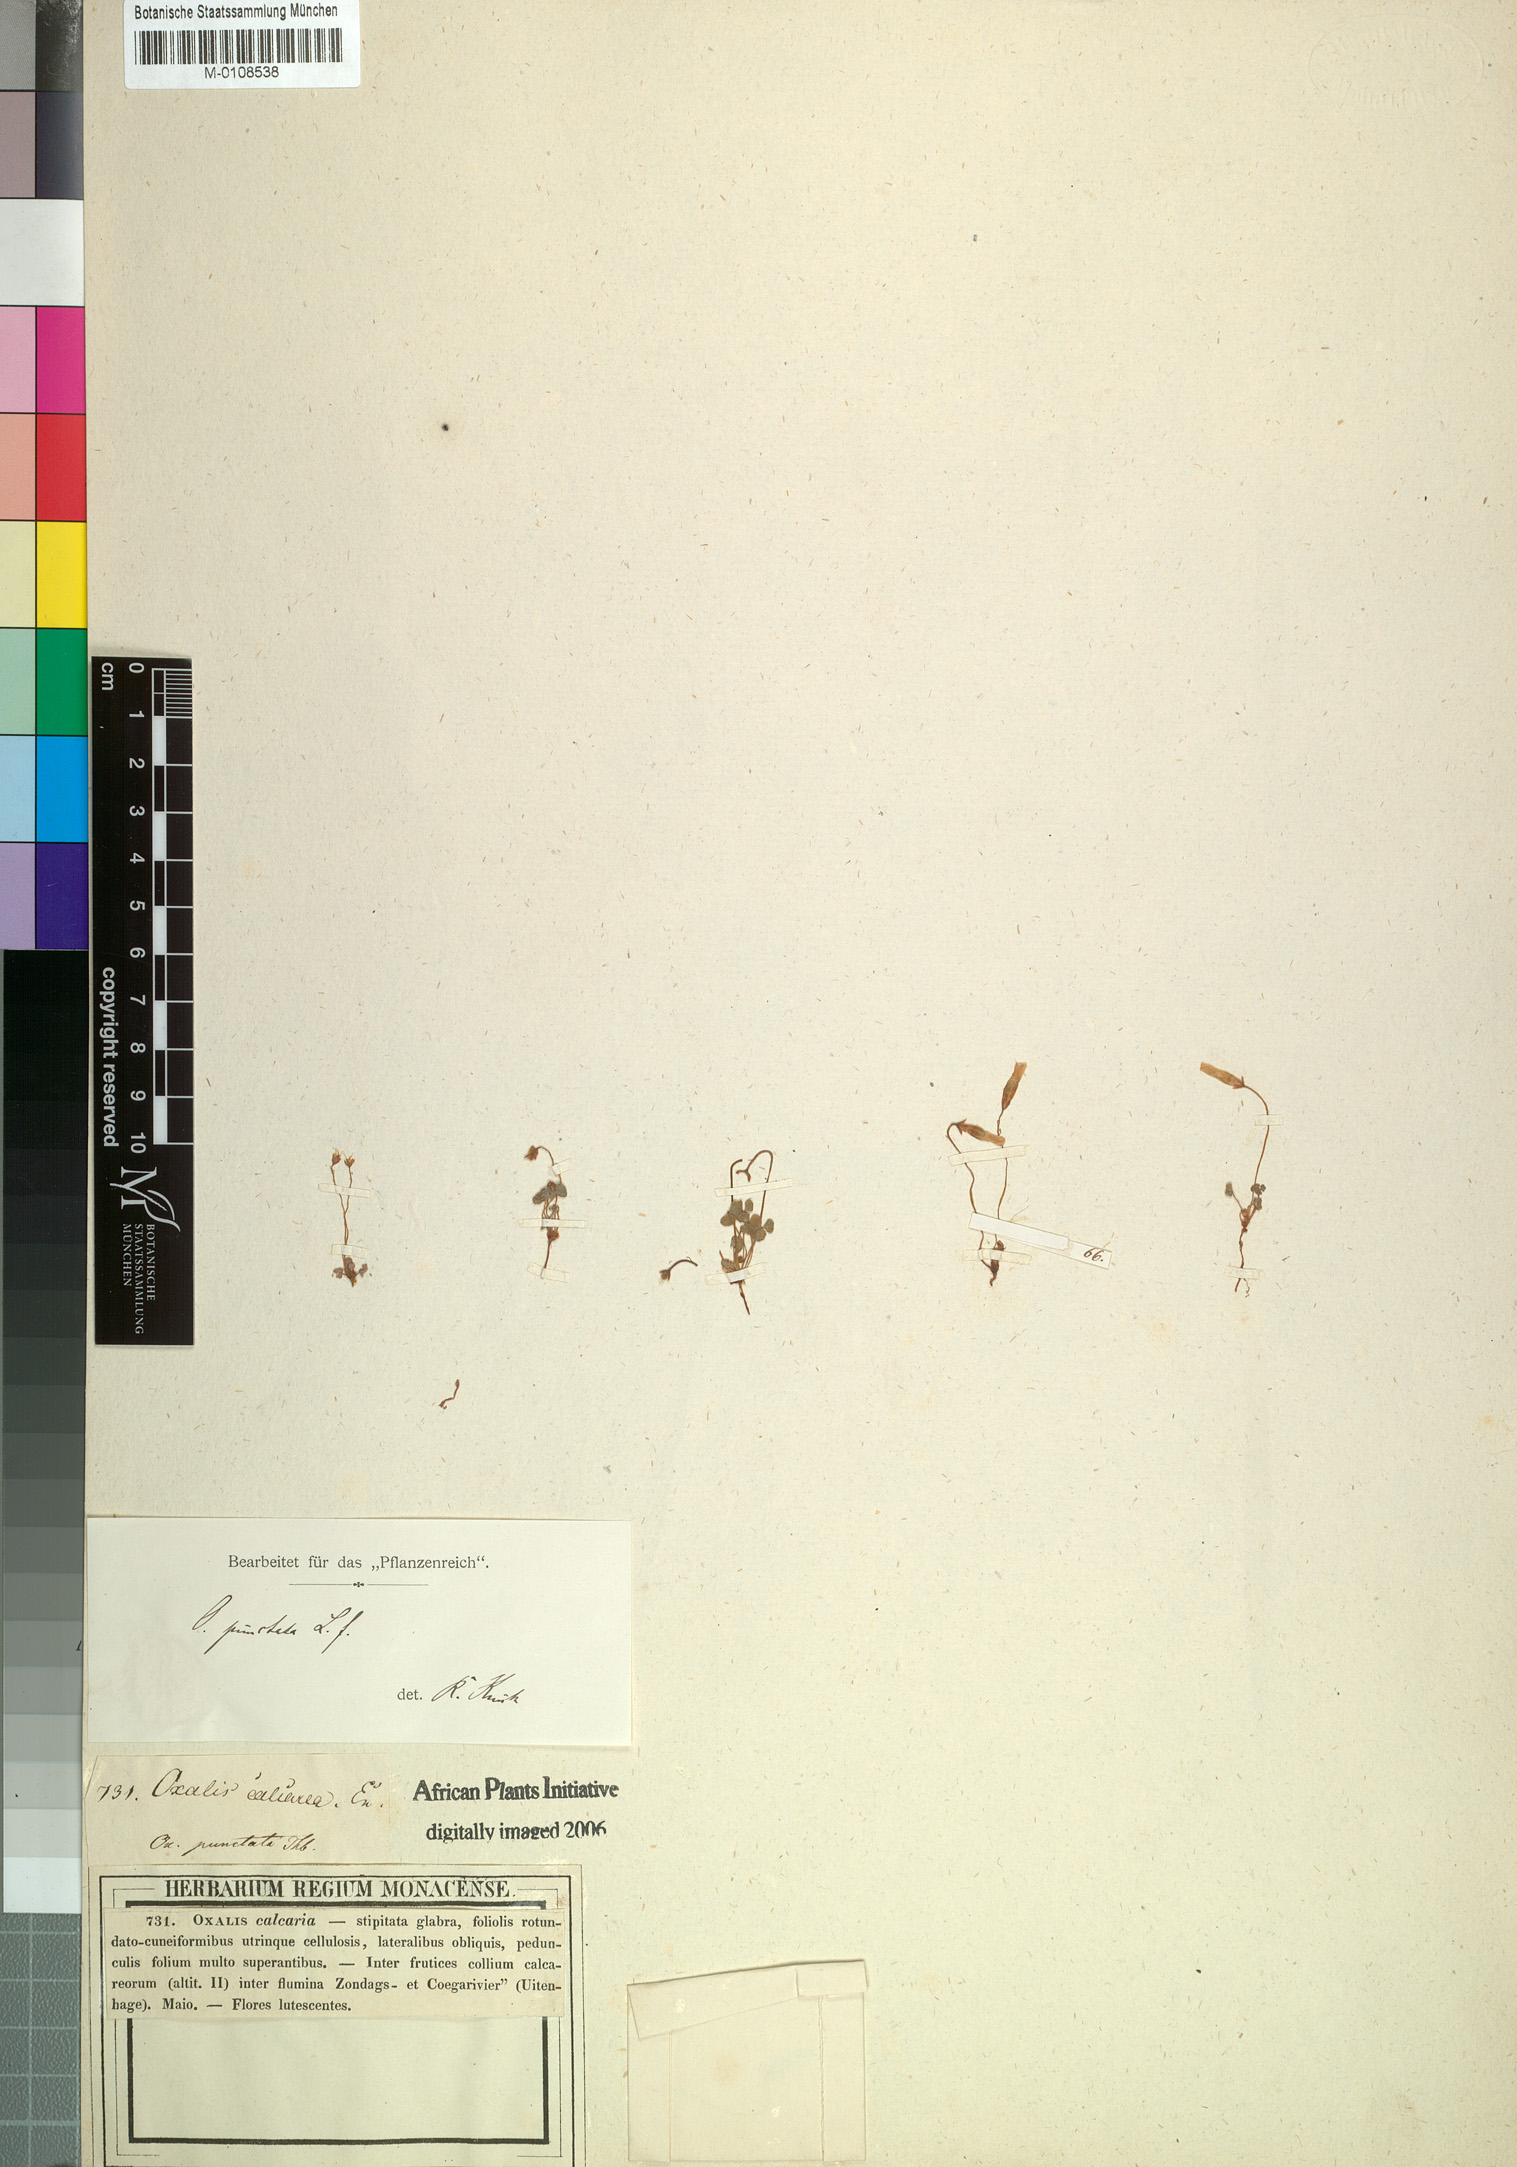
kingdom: Plantae
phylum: Tracheophyta
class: Magnoliopsida
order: Oxalidales
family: Oxalidaceae
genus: Oxalis
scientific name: Oxalis punctata
